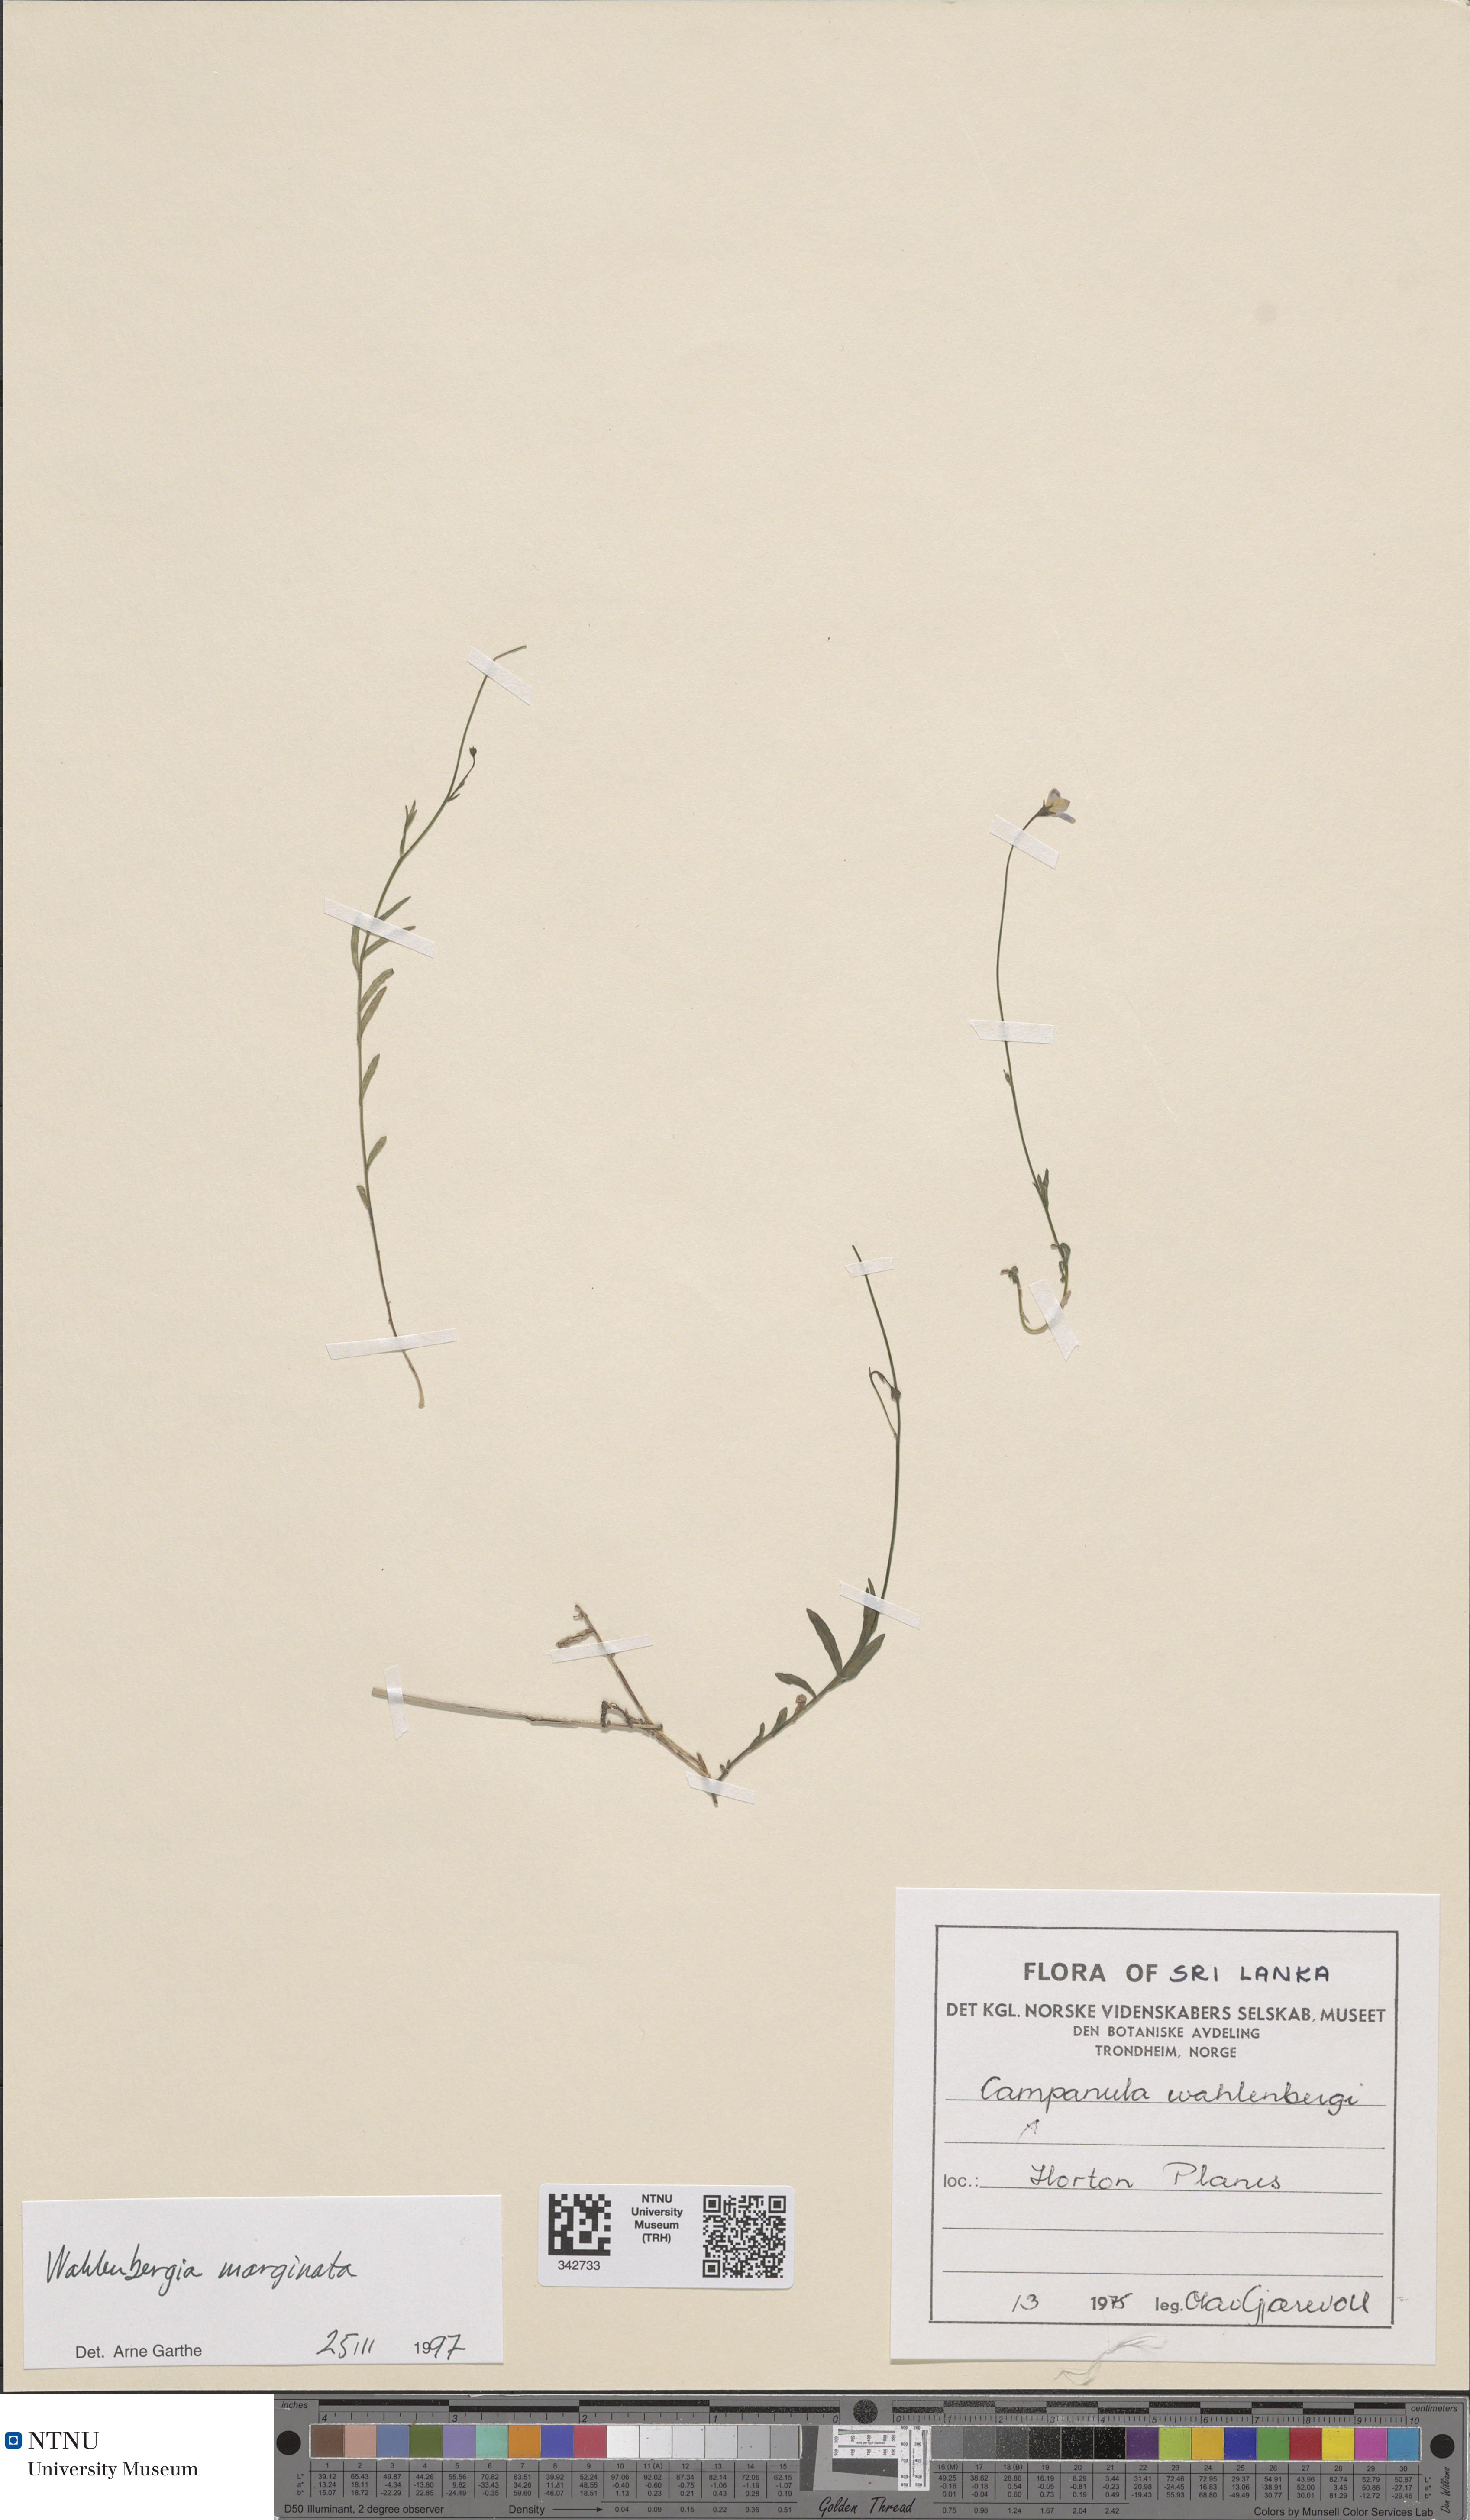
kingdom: Plantae
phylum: Tracheophyta
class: Magnoliopsida
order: Asterales
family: Campanulaceae
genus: Wahlenbergia
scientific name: Wahlenbergia marginata
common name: Southern rockbell
